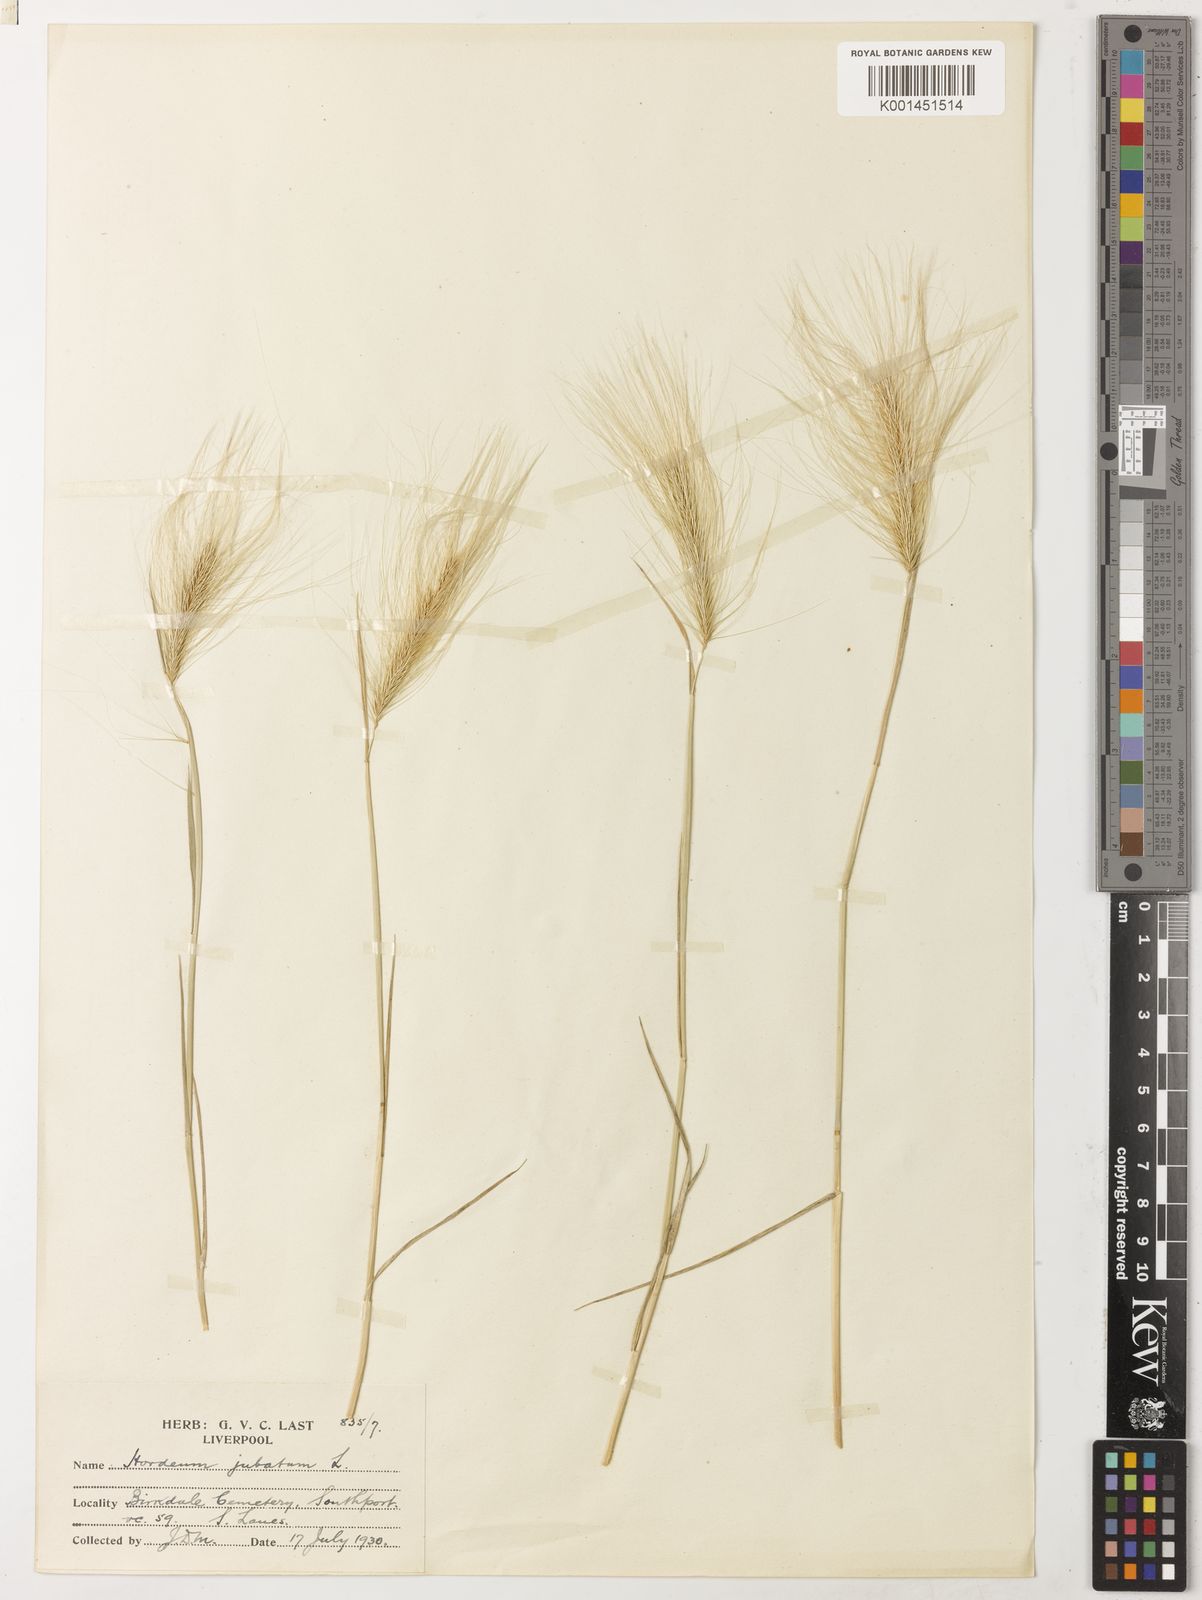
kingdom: Plantae
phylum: Tracheophyta
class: Liliopsida
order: Poales
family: Poaceae
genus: Hordeum
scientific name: Hordeum jubatum
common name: Foxtail barley
